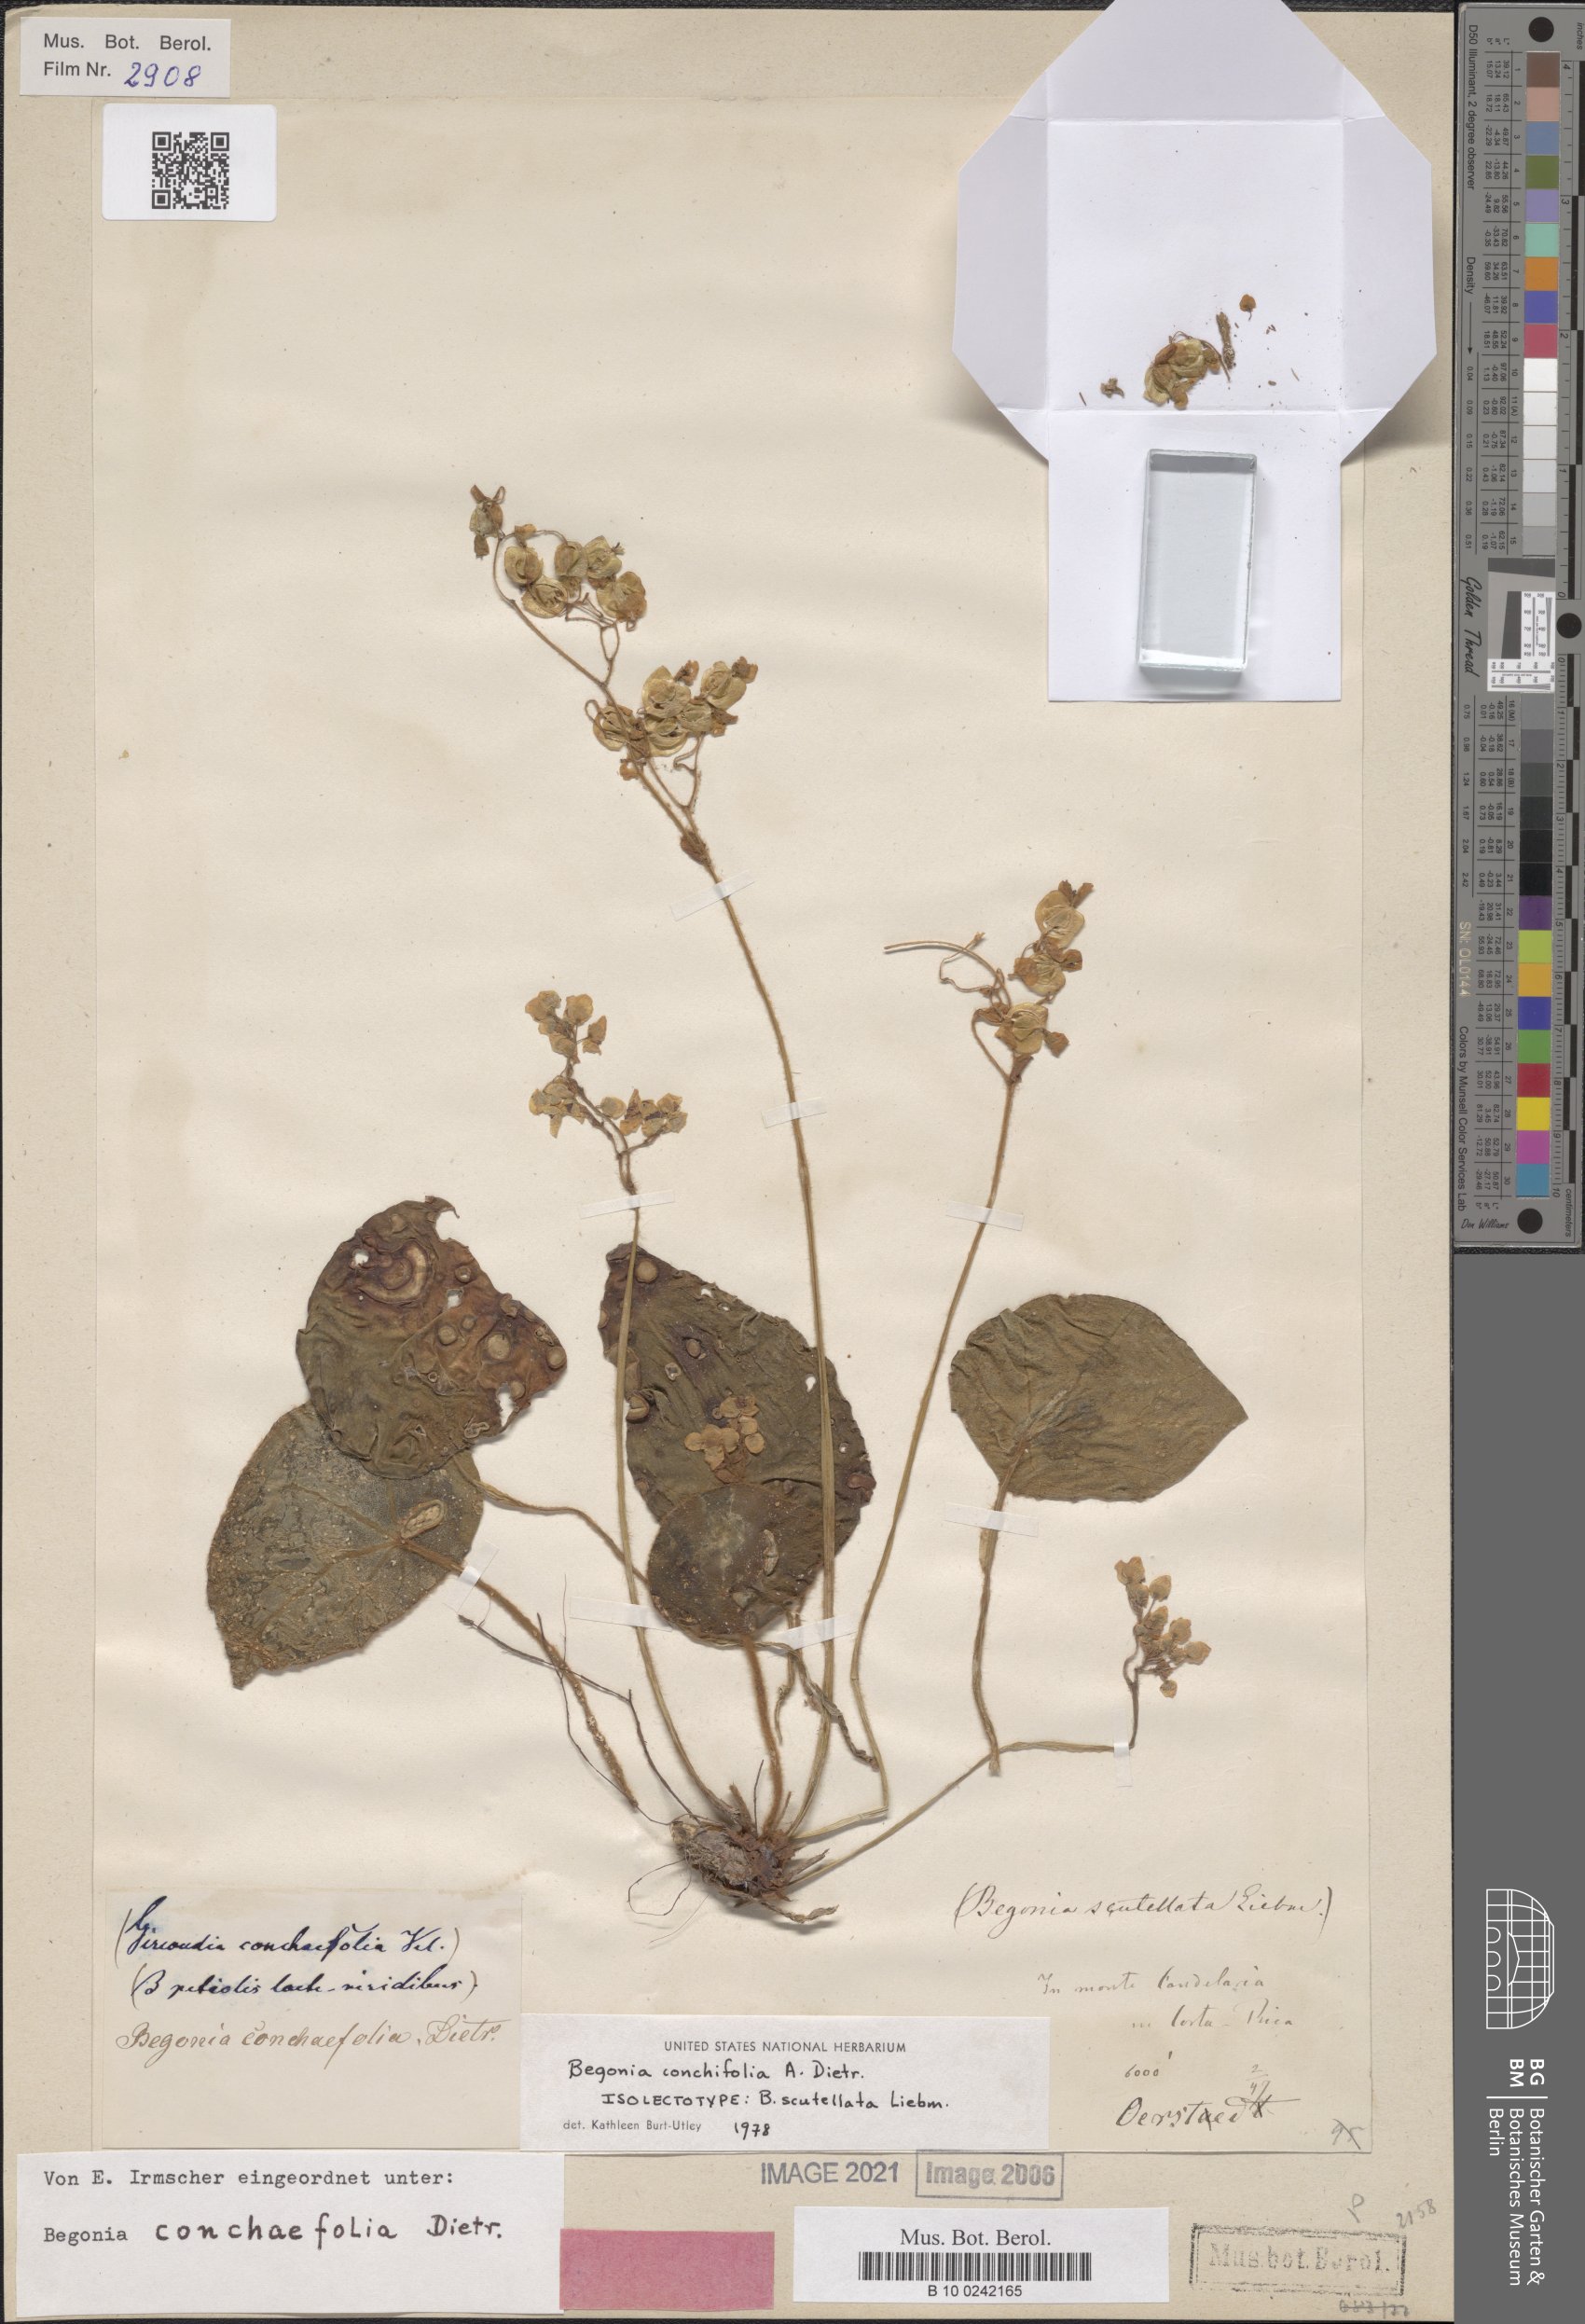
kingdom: Plantae
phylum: Tracheophyta
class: Magnoliopsida
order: Cucurbitales
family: Begoniaceae
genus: Begonia
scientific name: Begonia conchifolia
